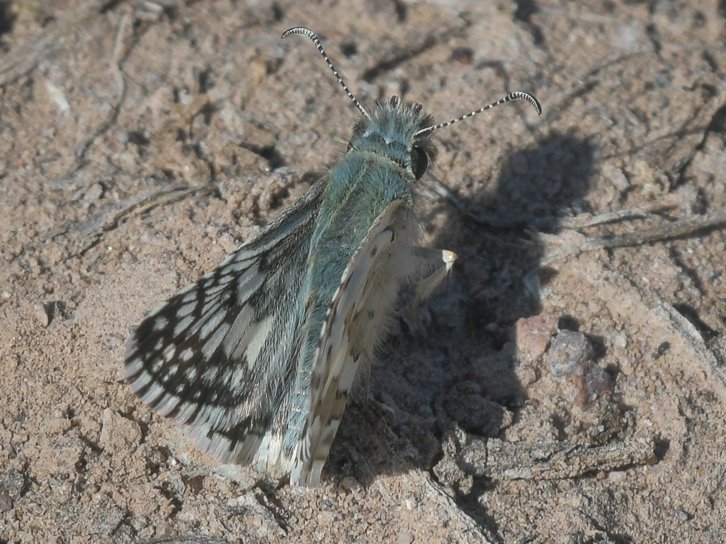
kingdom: Animalia
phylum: Arthropoda
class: Insecta
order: Lepidoptera
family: Hesperiidae
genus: Pyrgus
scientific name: Pyrgus communis
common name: White Checkered-Skipper
